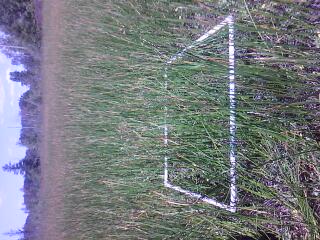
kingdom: Plantae
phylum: Tracheophyta
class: Liliopsida
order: Poales
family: Cyperaceae
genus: Schoenoplectus
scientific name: Schoenoplectus pungens
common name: Sharp club-rush
